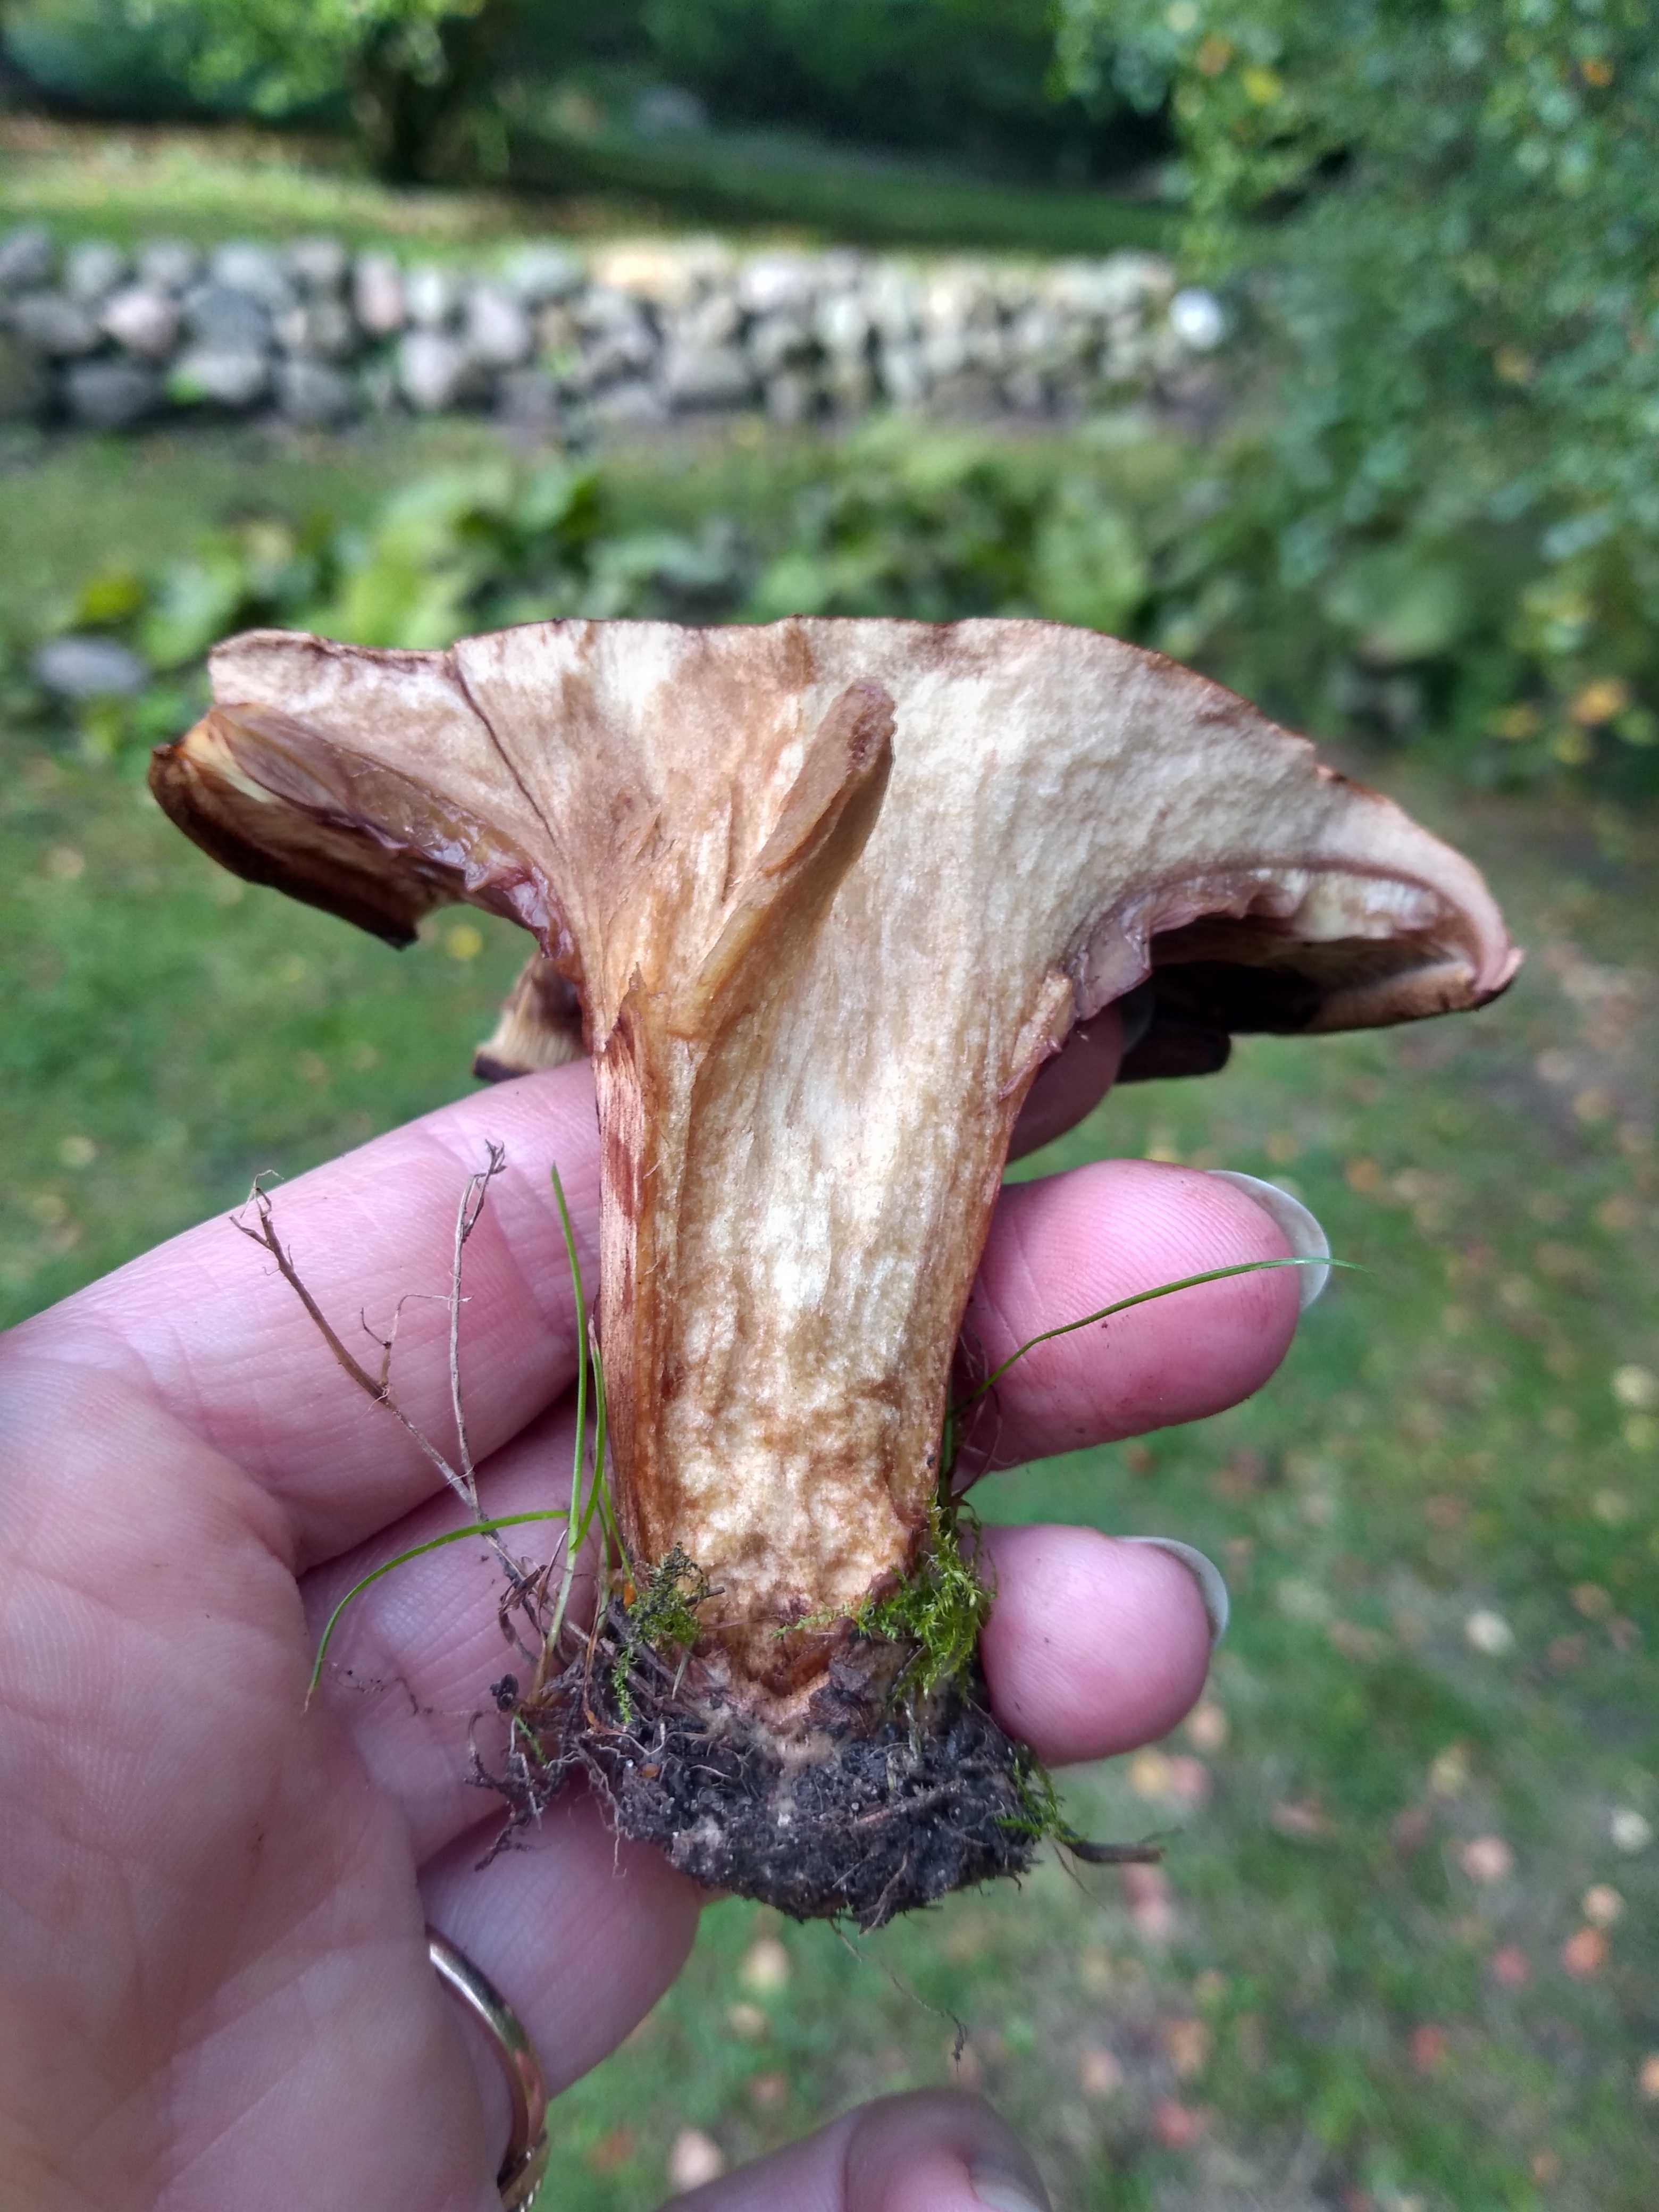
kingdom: Fungi
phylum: Basidiomycota
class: Agaricomycetes
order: Boletales
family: Paxillaceae
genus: Paxillus
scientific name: Paxillus
